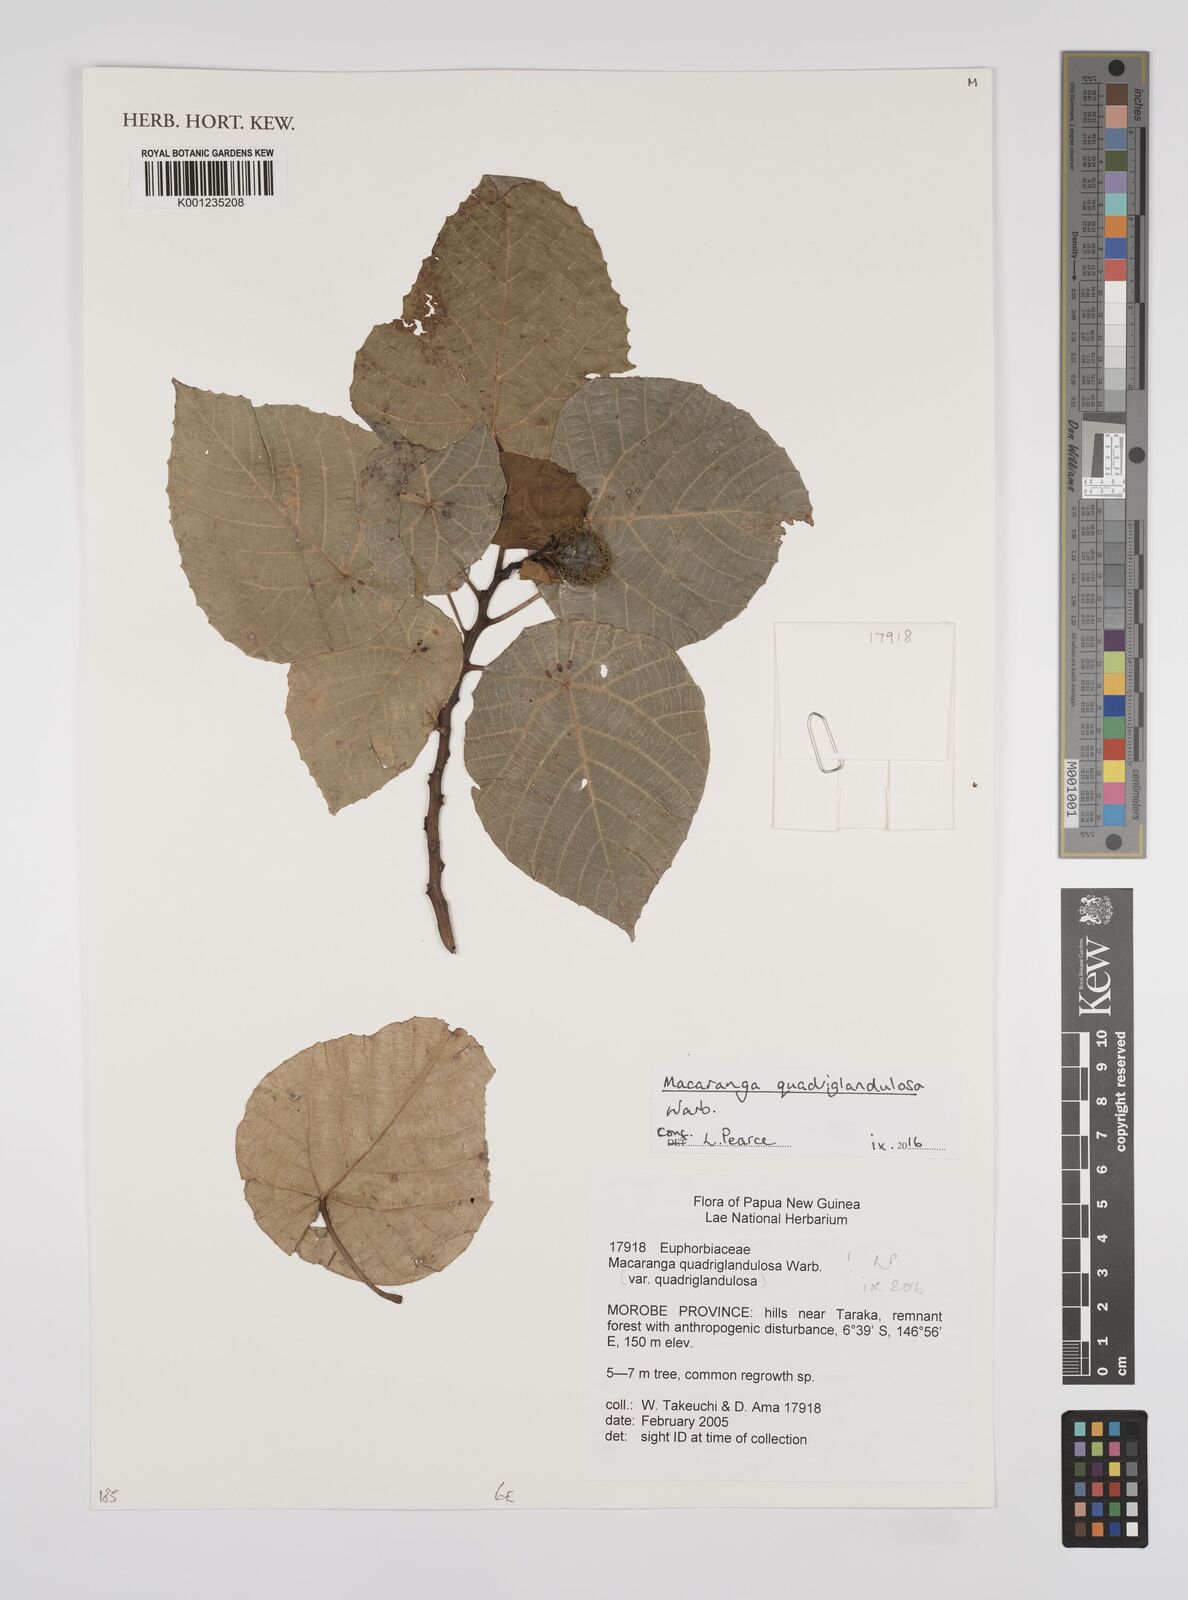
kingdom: Plantae
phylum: Tracheophyta
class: Magnoliopsida
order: Malpighiales
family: Euphorbiaceae
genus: Macaranga
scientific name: Macaranga quadriglandulosa
